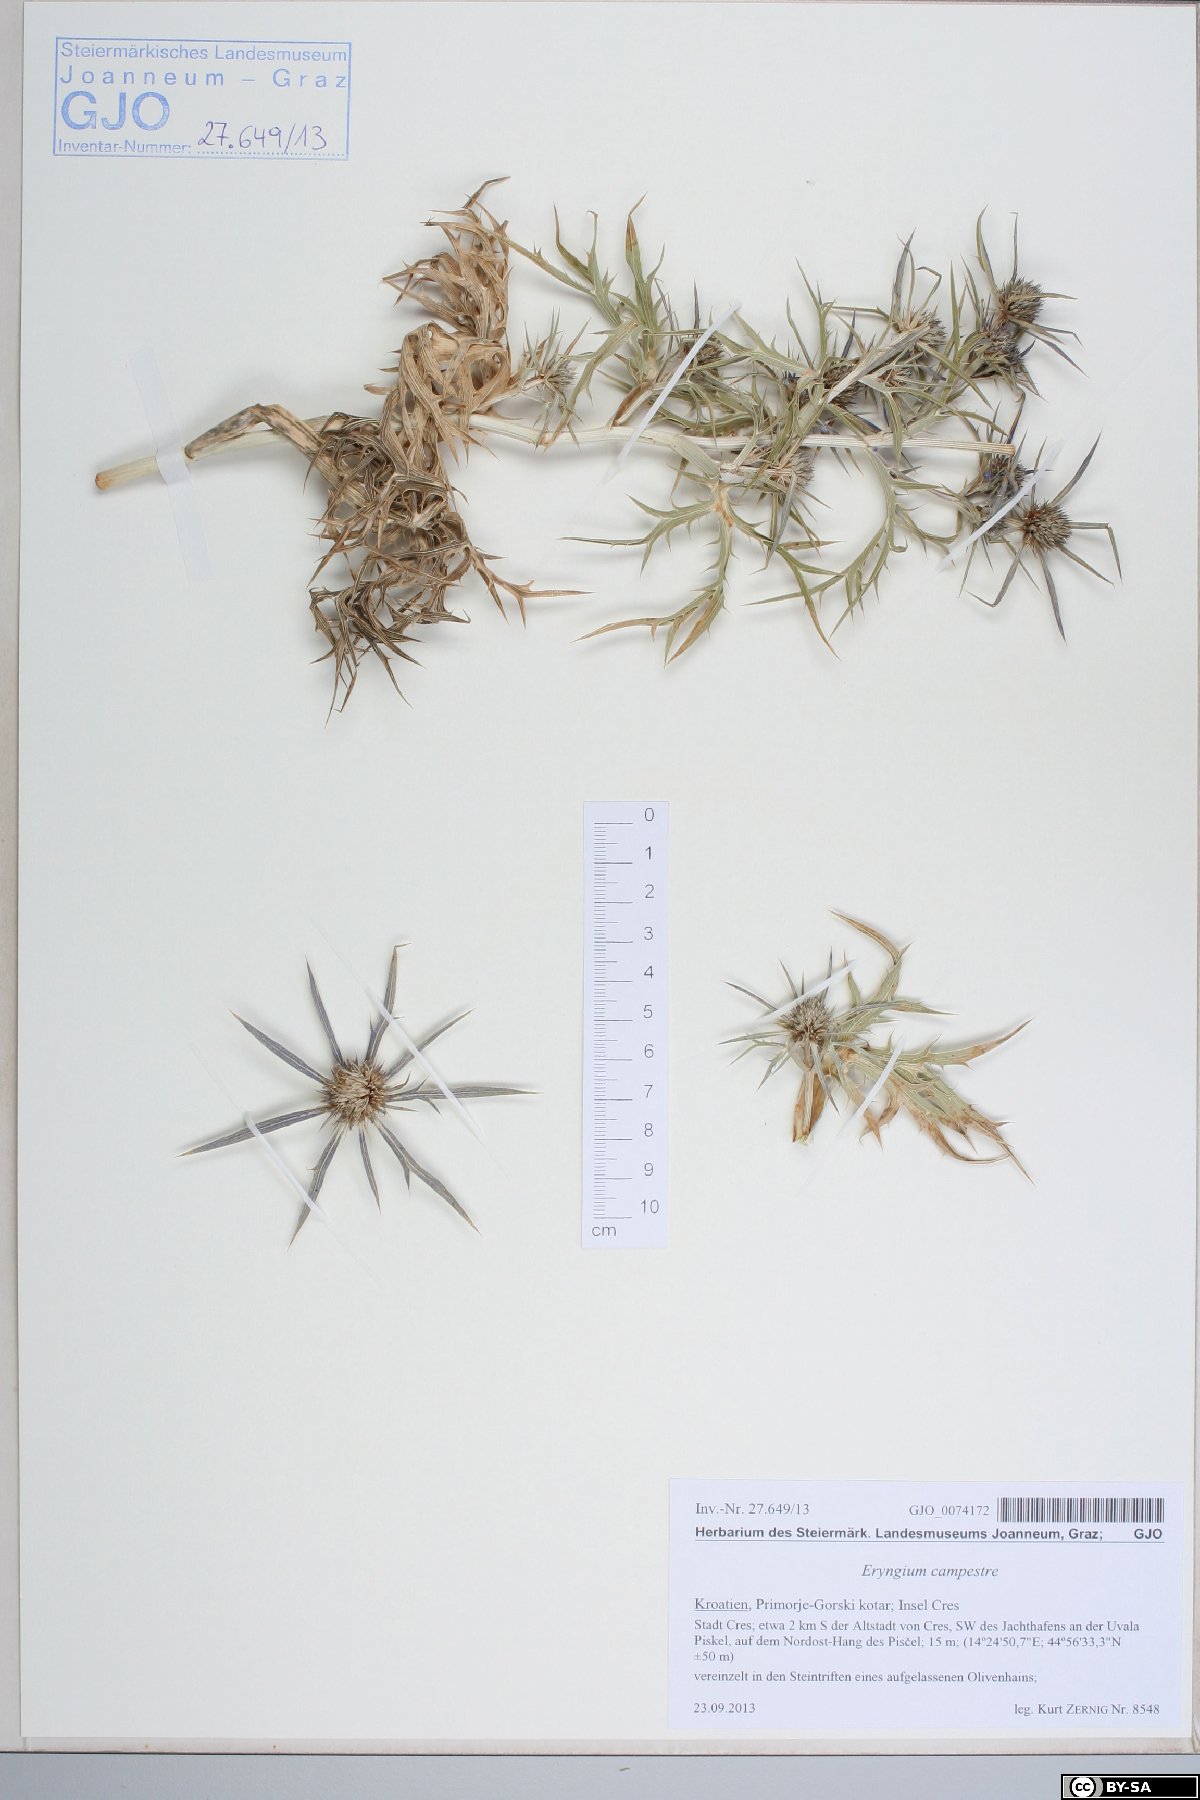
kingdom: Plantae
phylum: Tracheophyta
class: Magnoliopsida
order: Apiales
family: Apiaceae
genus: Eryngium
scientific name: Eryngium amethystinum
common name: Amethyst eryngo
